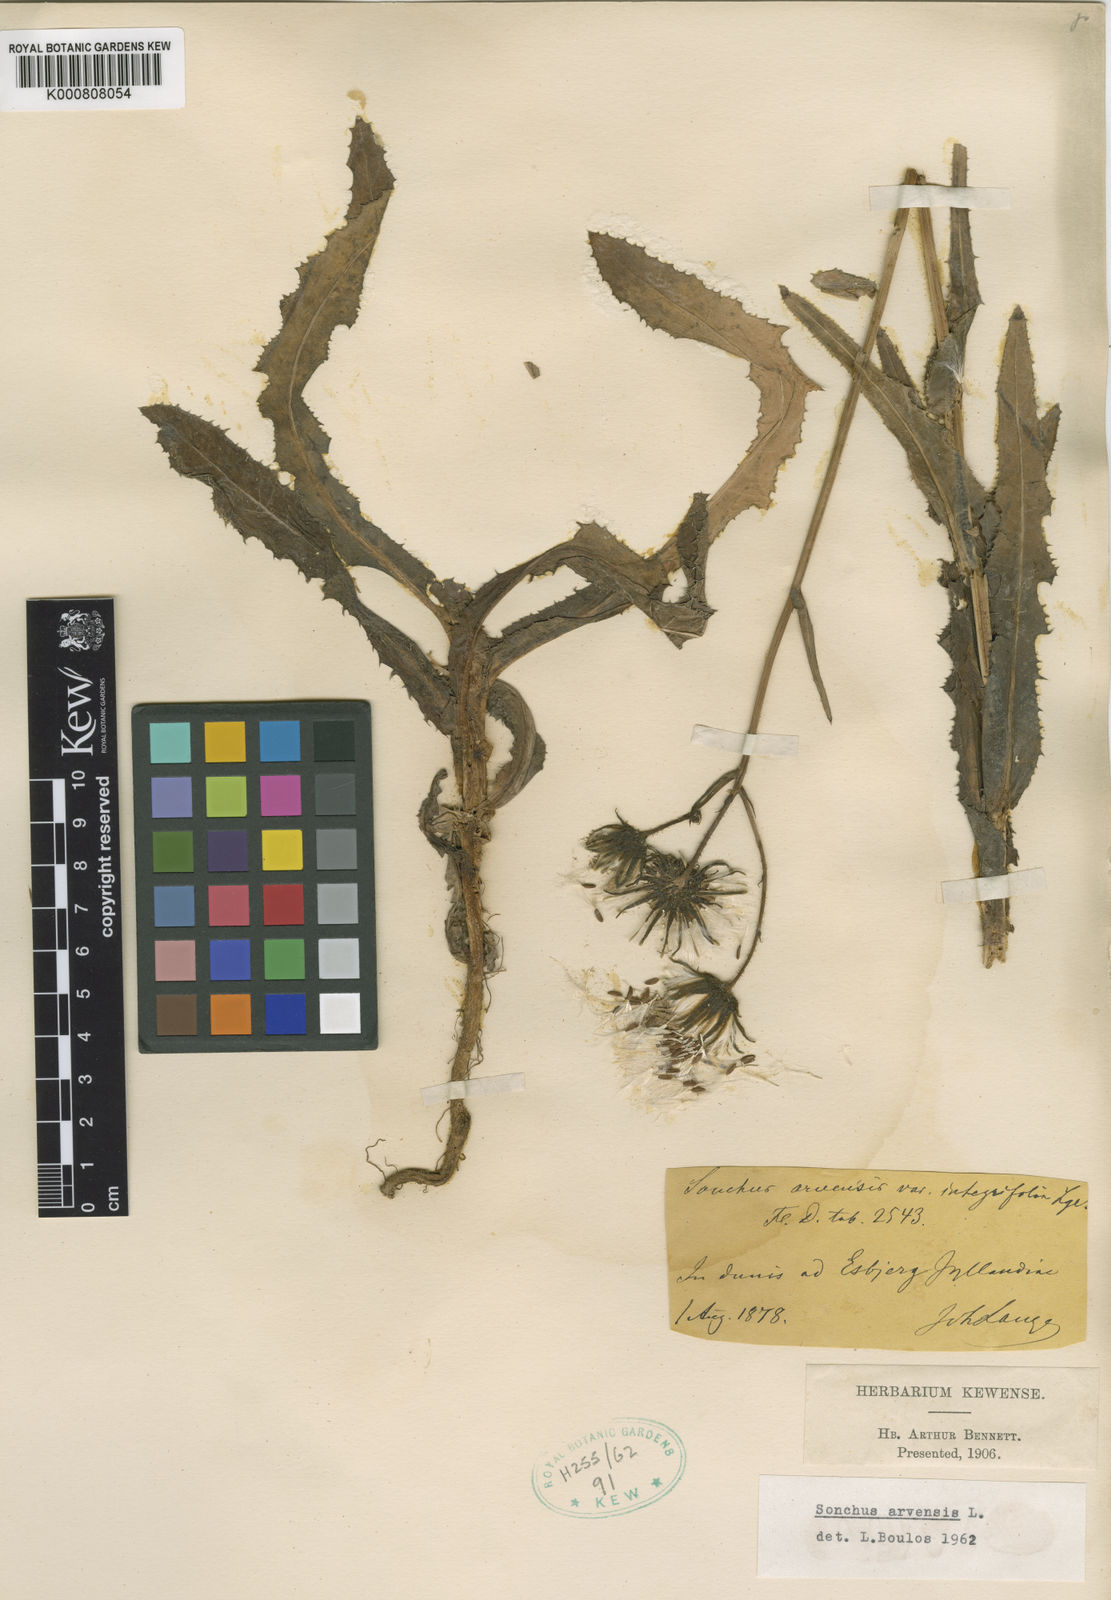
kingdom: Plantae
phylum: Tracheophyta
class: Magnoliopsida
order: Asterales
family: Asteraceae
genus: Sonchus
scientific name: Sonchus arvensis
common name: Perennial sow-thistle
